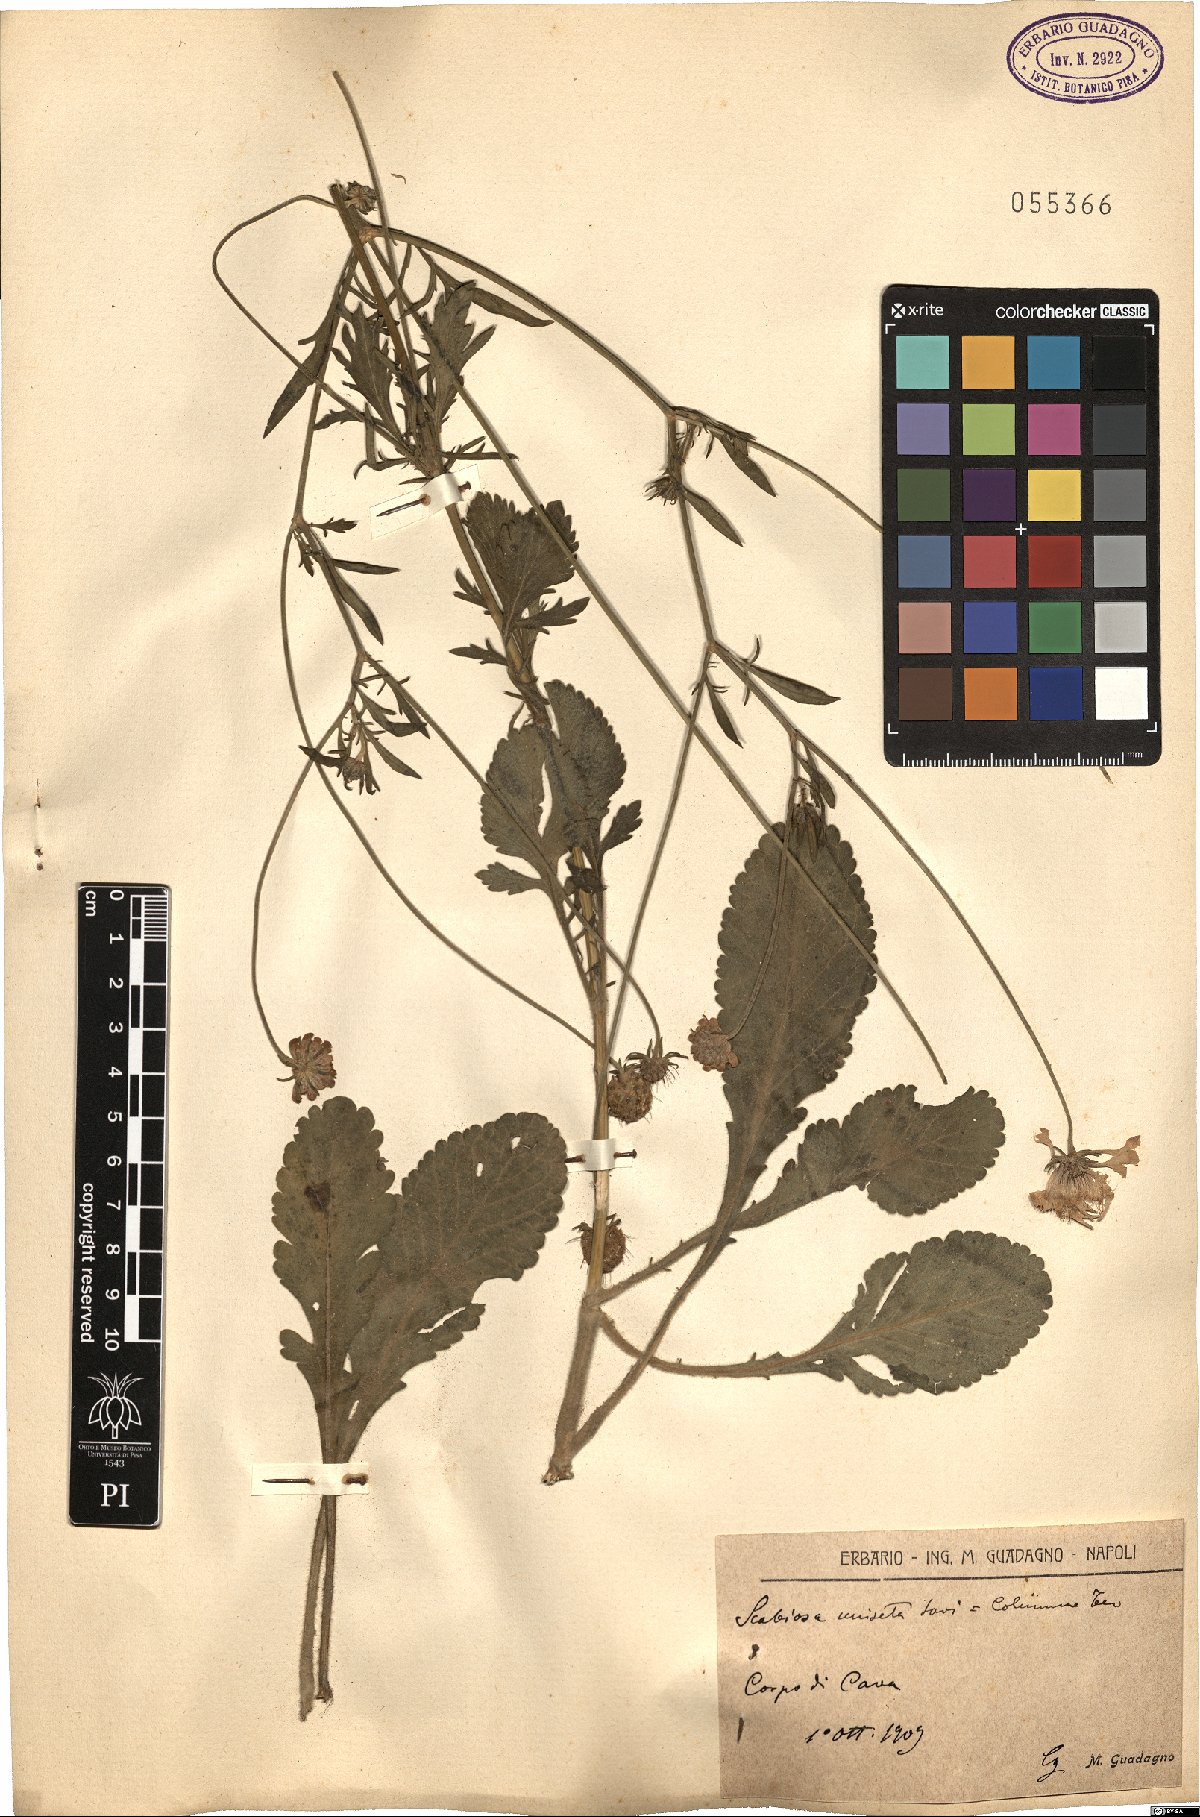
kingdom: Plantae
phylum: Tracheophyta
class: Magnoliopsida
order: Dipsacales
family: Caprifoliaceae
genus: Scabiosa
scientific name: Scabiosa columbaria
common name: Small scabious
